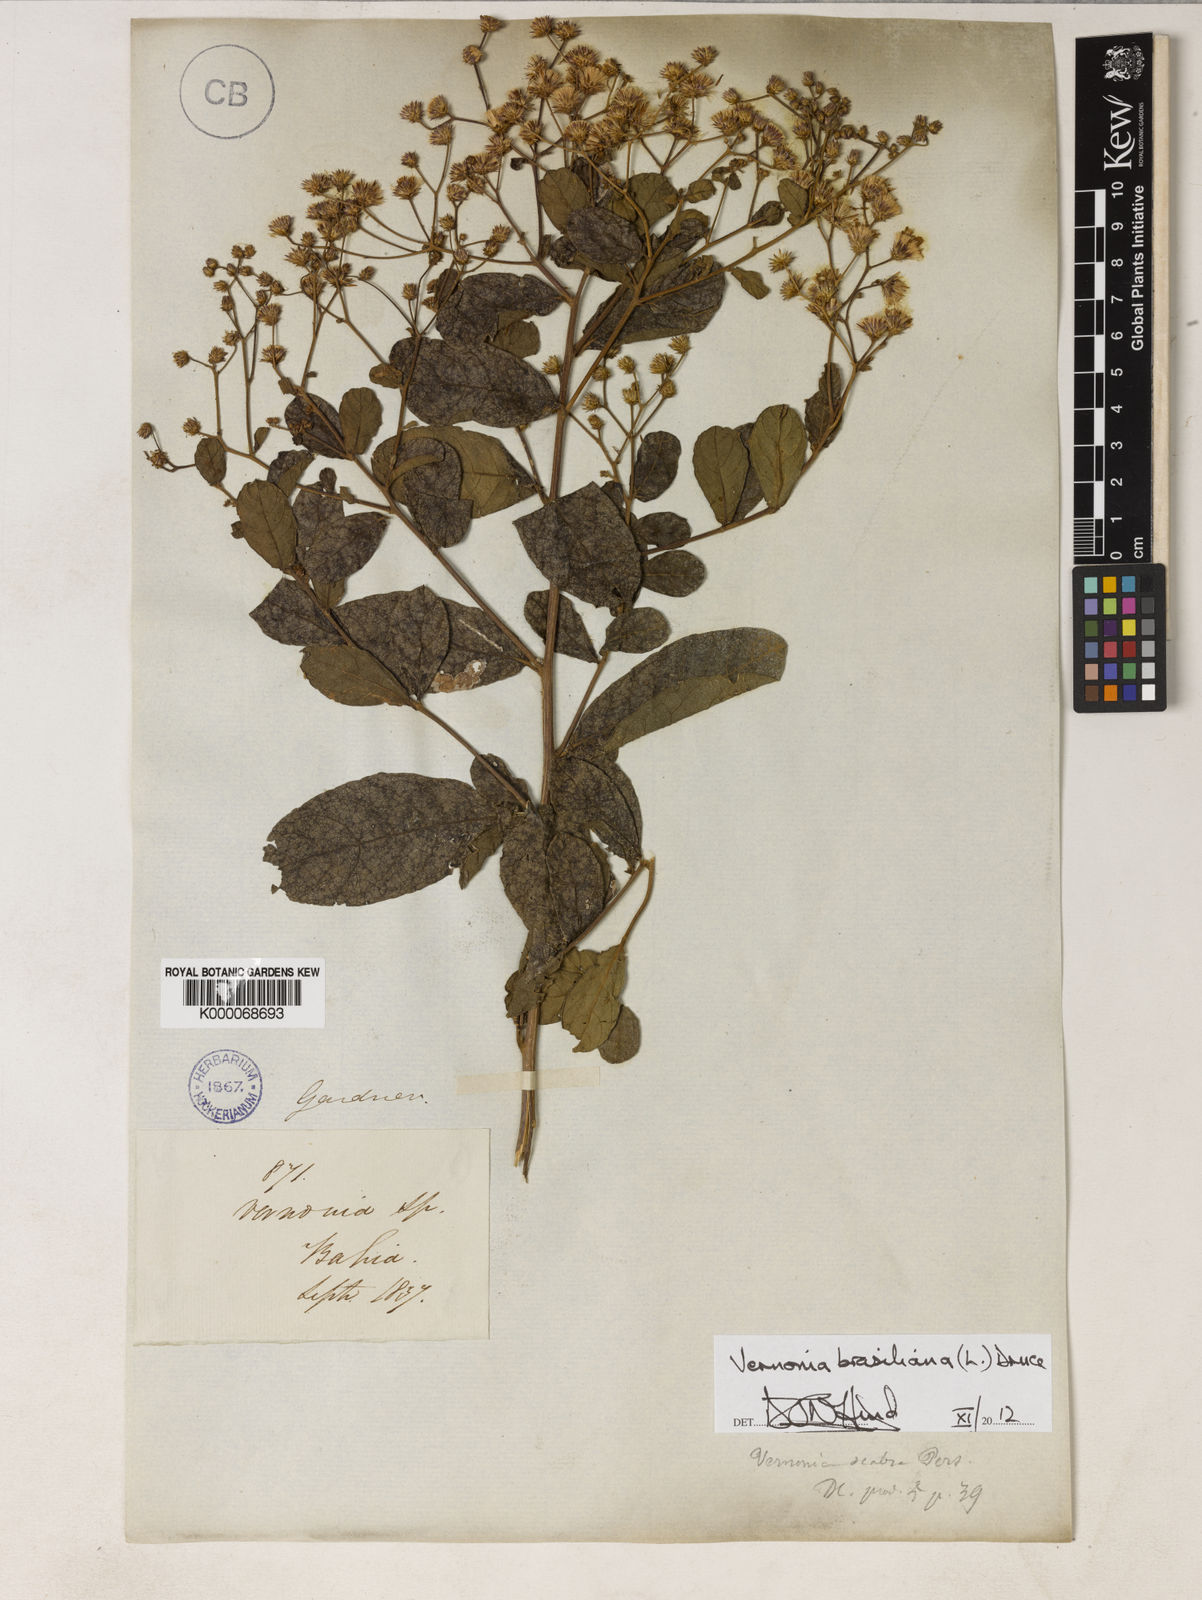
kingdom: Plantae
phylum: Tracheophyta
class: Magnoliopsida
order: Asterales
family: Asteraceae
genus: Vernonanthura
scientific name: Vernonanthura brasiliana
